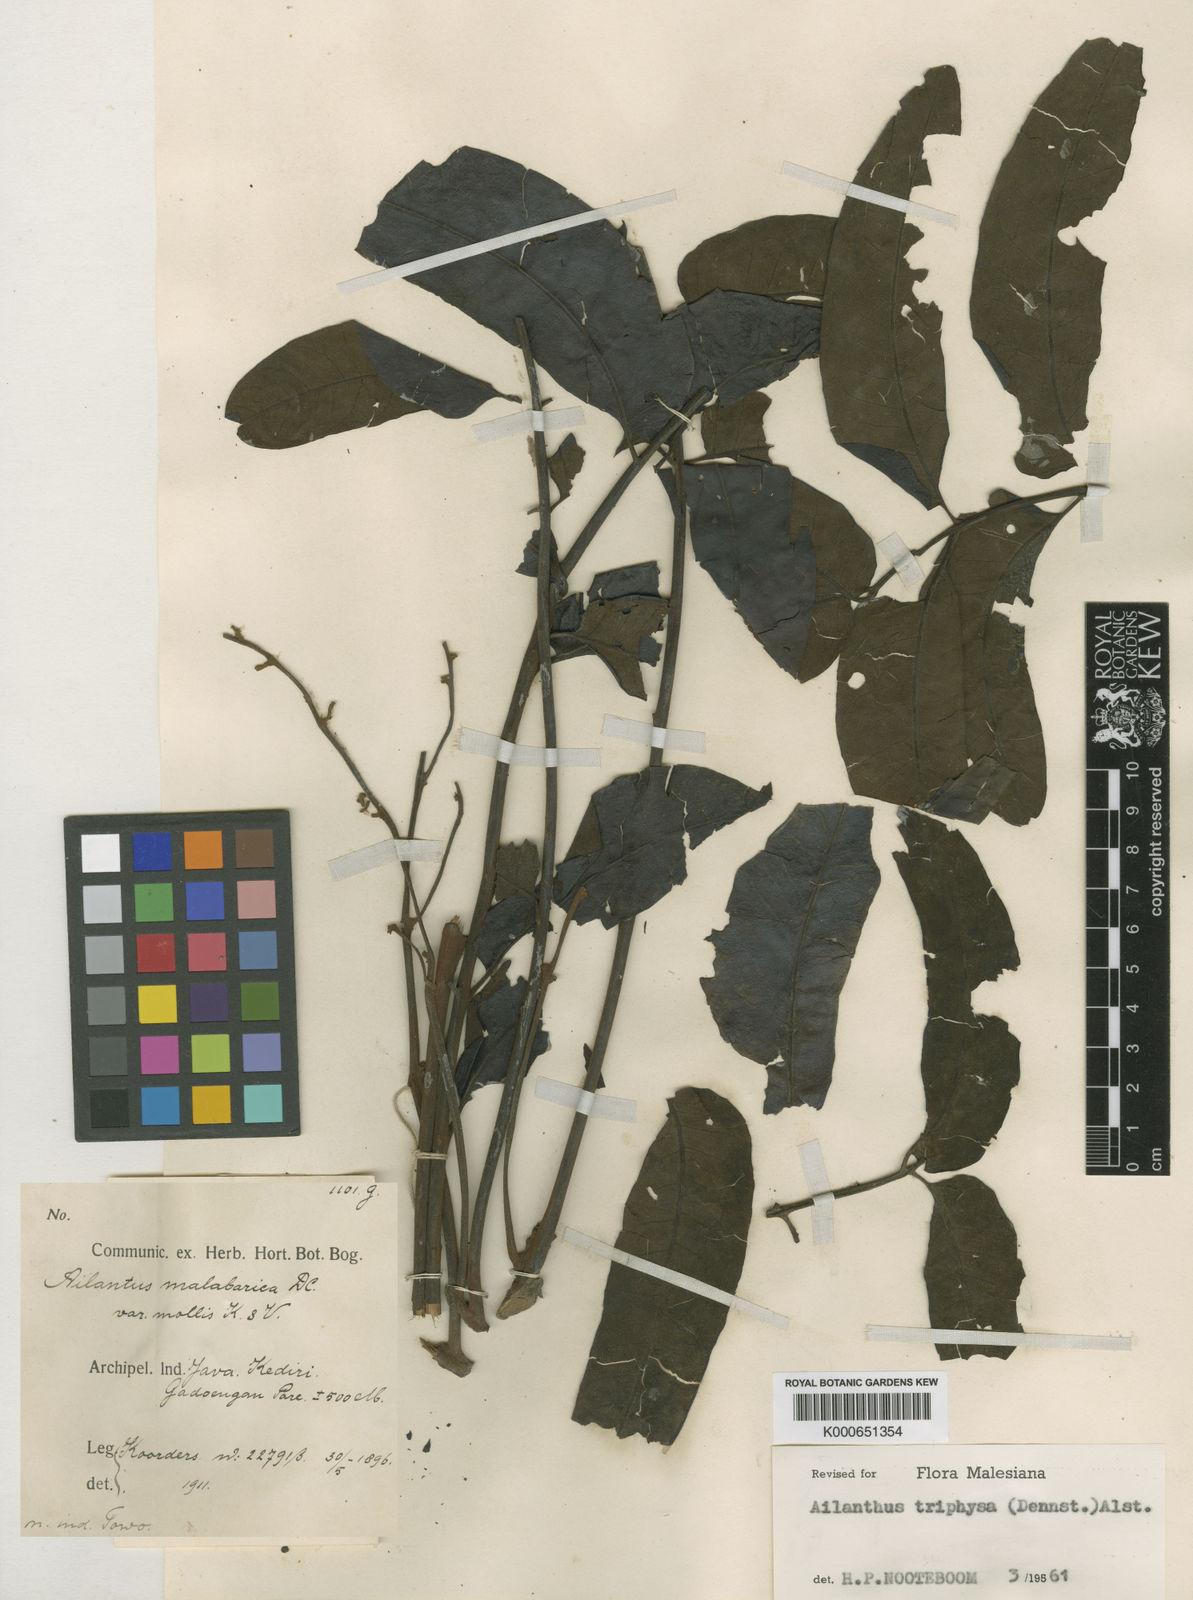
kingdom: Plantae
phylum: Tracheophyta
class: Magnoliopsida
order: Sapindales
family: Simaroubaceae
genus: Ailanthus
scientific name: Ailanthus triphysa
